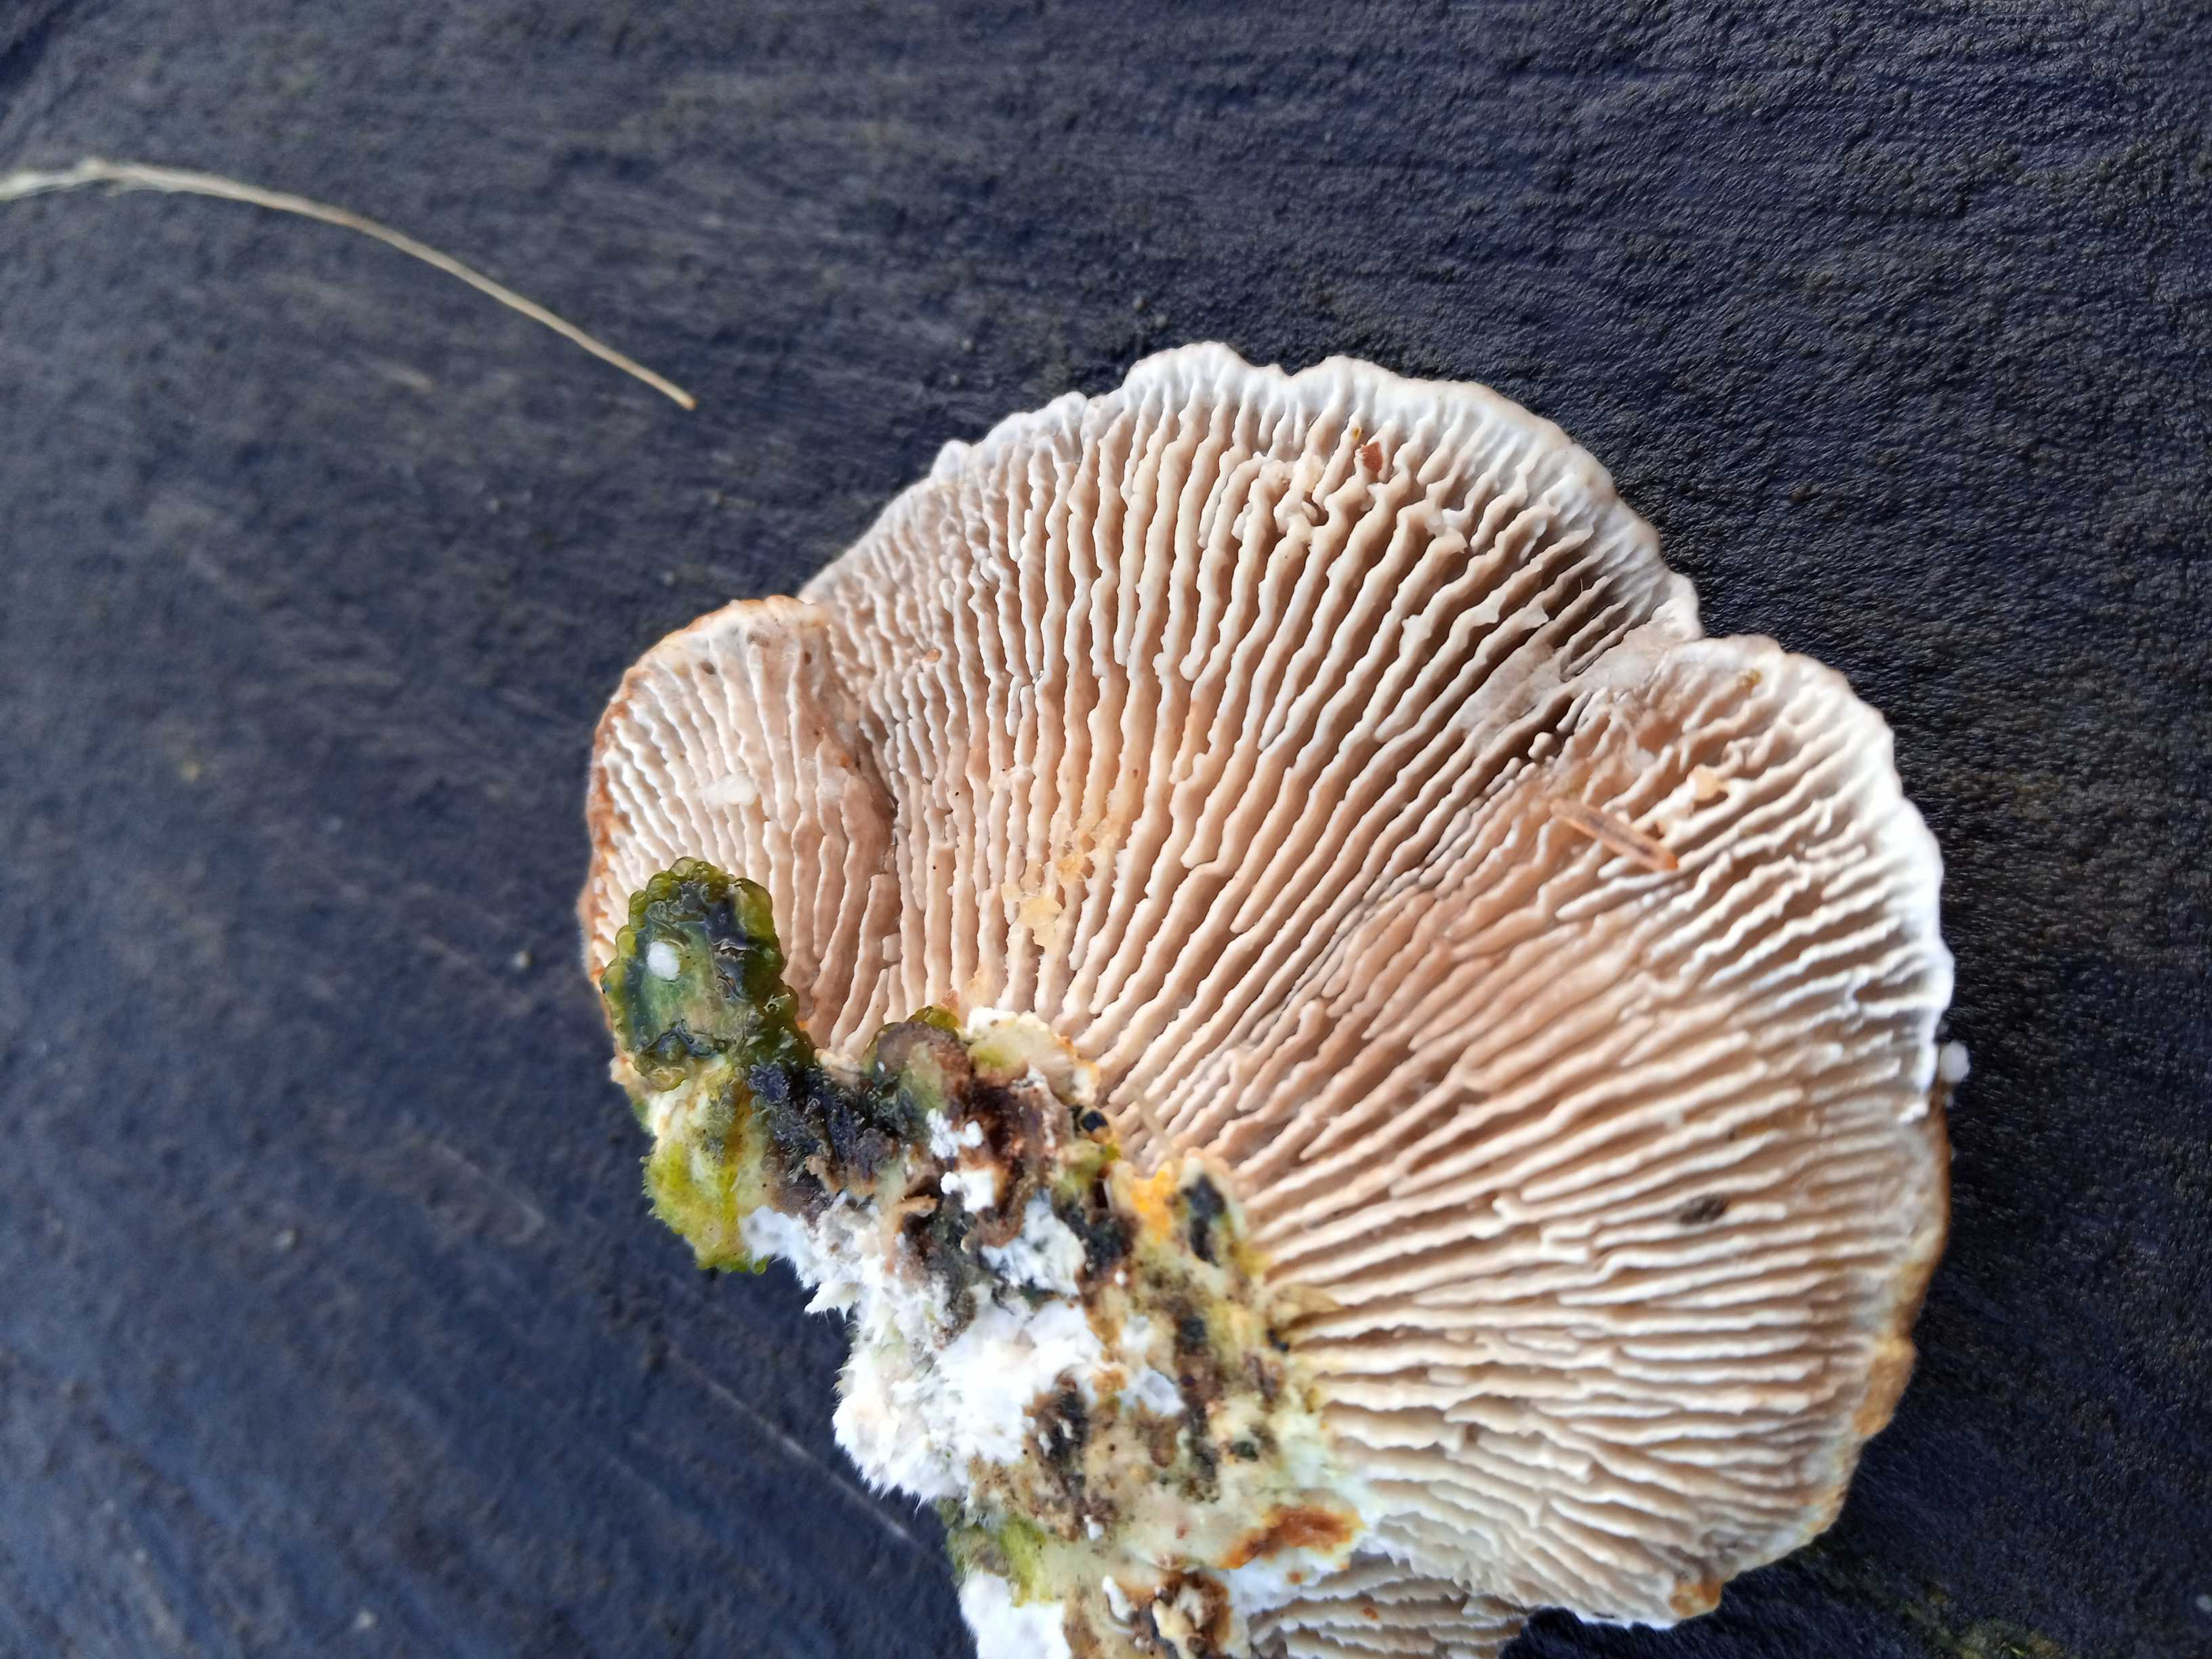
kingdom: Fungi
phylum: Basidiomycota
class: Agaricomycetes
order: Polyporales
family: Polyporaceae
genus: Lenzites
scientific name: Lenzites betulinus
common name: birke-læderporesvamp
